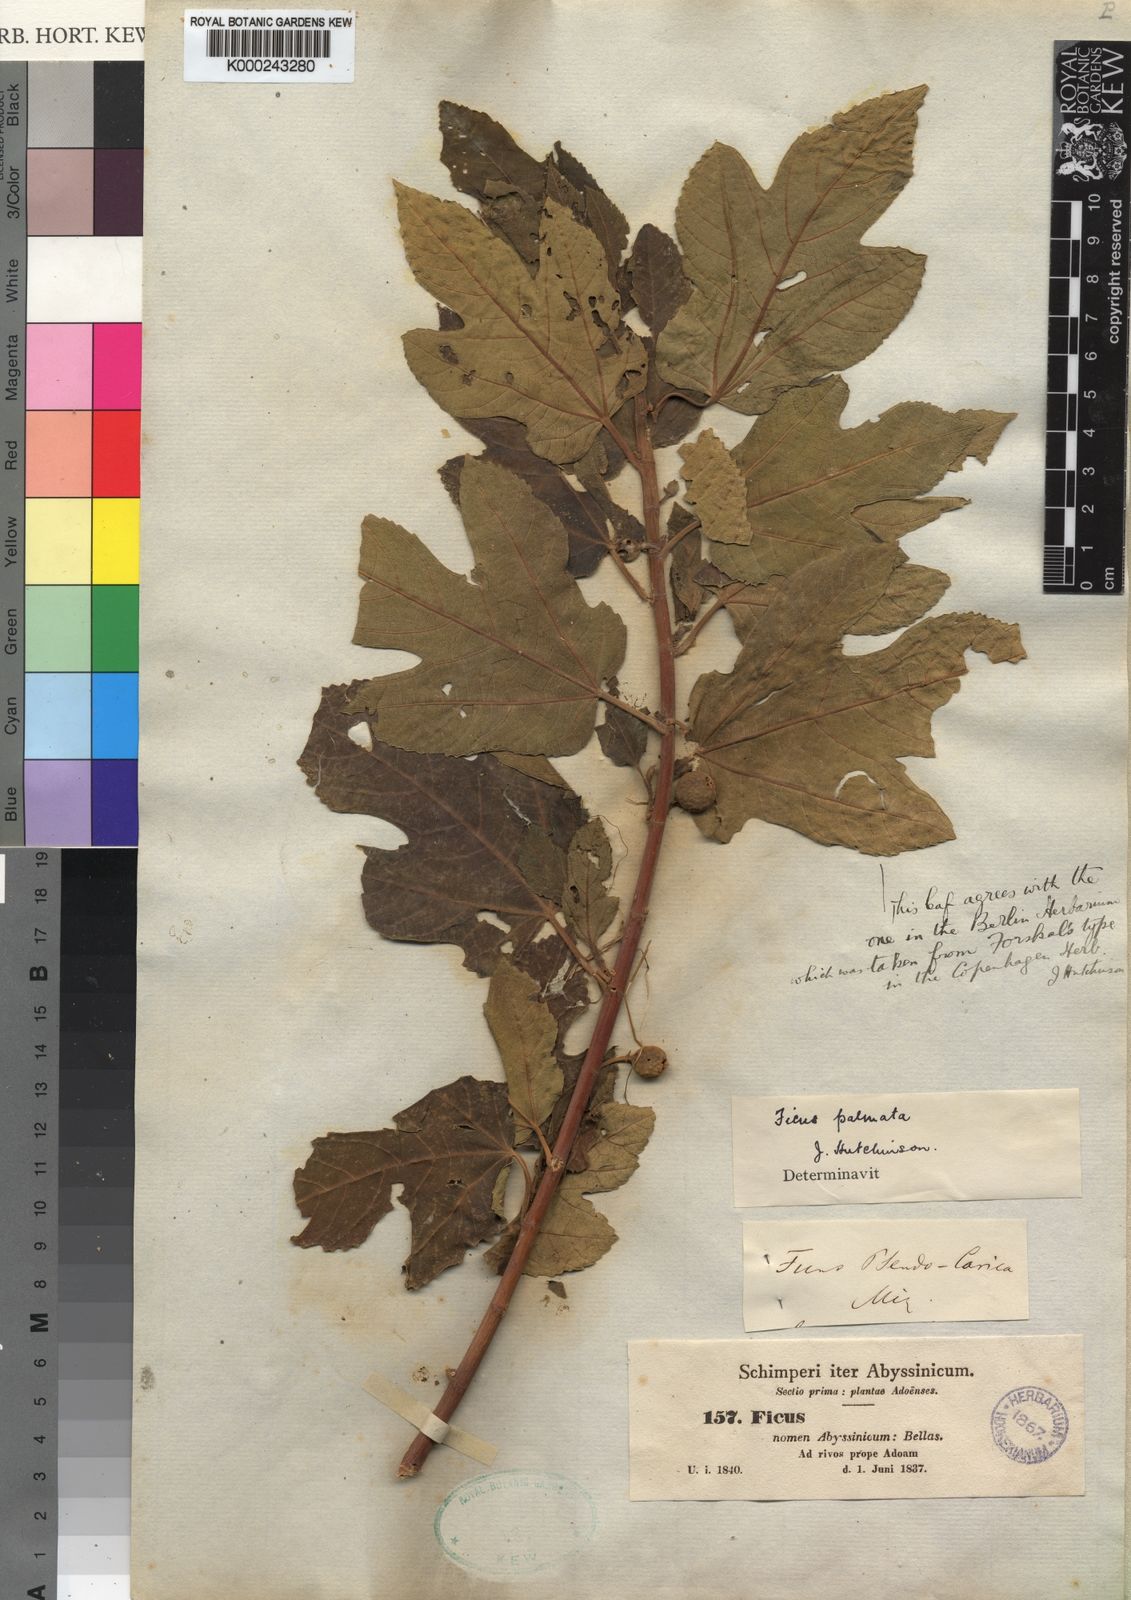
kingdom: Plantae
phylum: Tracheophyta
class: Magnoliopsida
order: Rosales
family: Moraceae
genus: Ficus
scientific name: Ficus palmata
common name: Punjab fig
